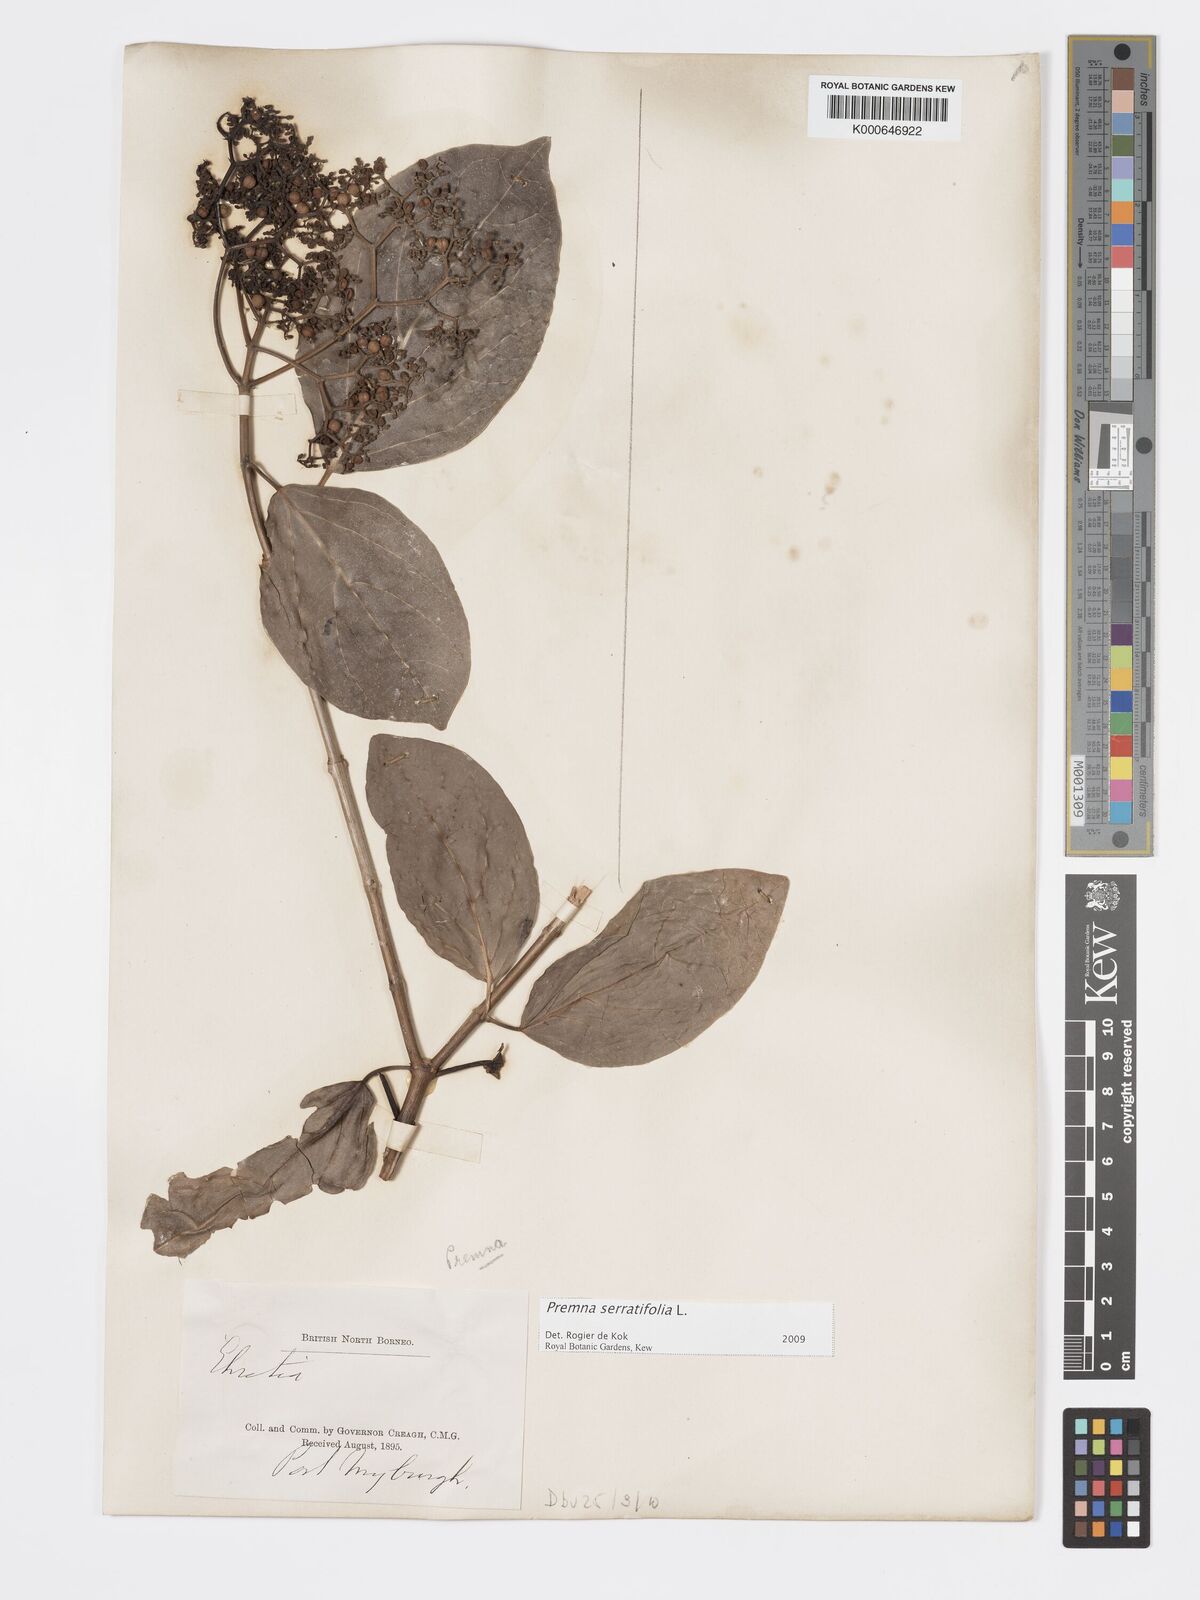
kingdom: Plantae
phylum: Tracheophyta
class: Magnoliopsida
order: Lamiales
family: Lamiaceae
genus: Premna
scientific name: Premna serratifolia
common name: Bastard guelder
